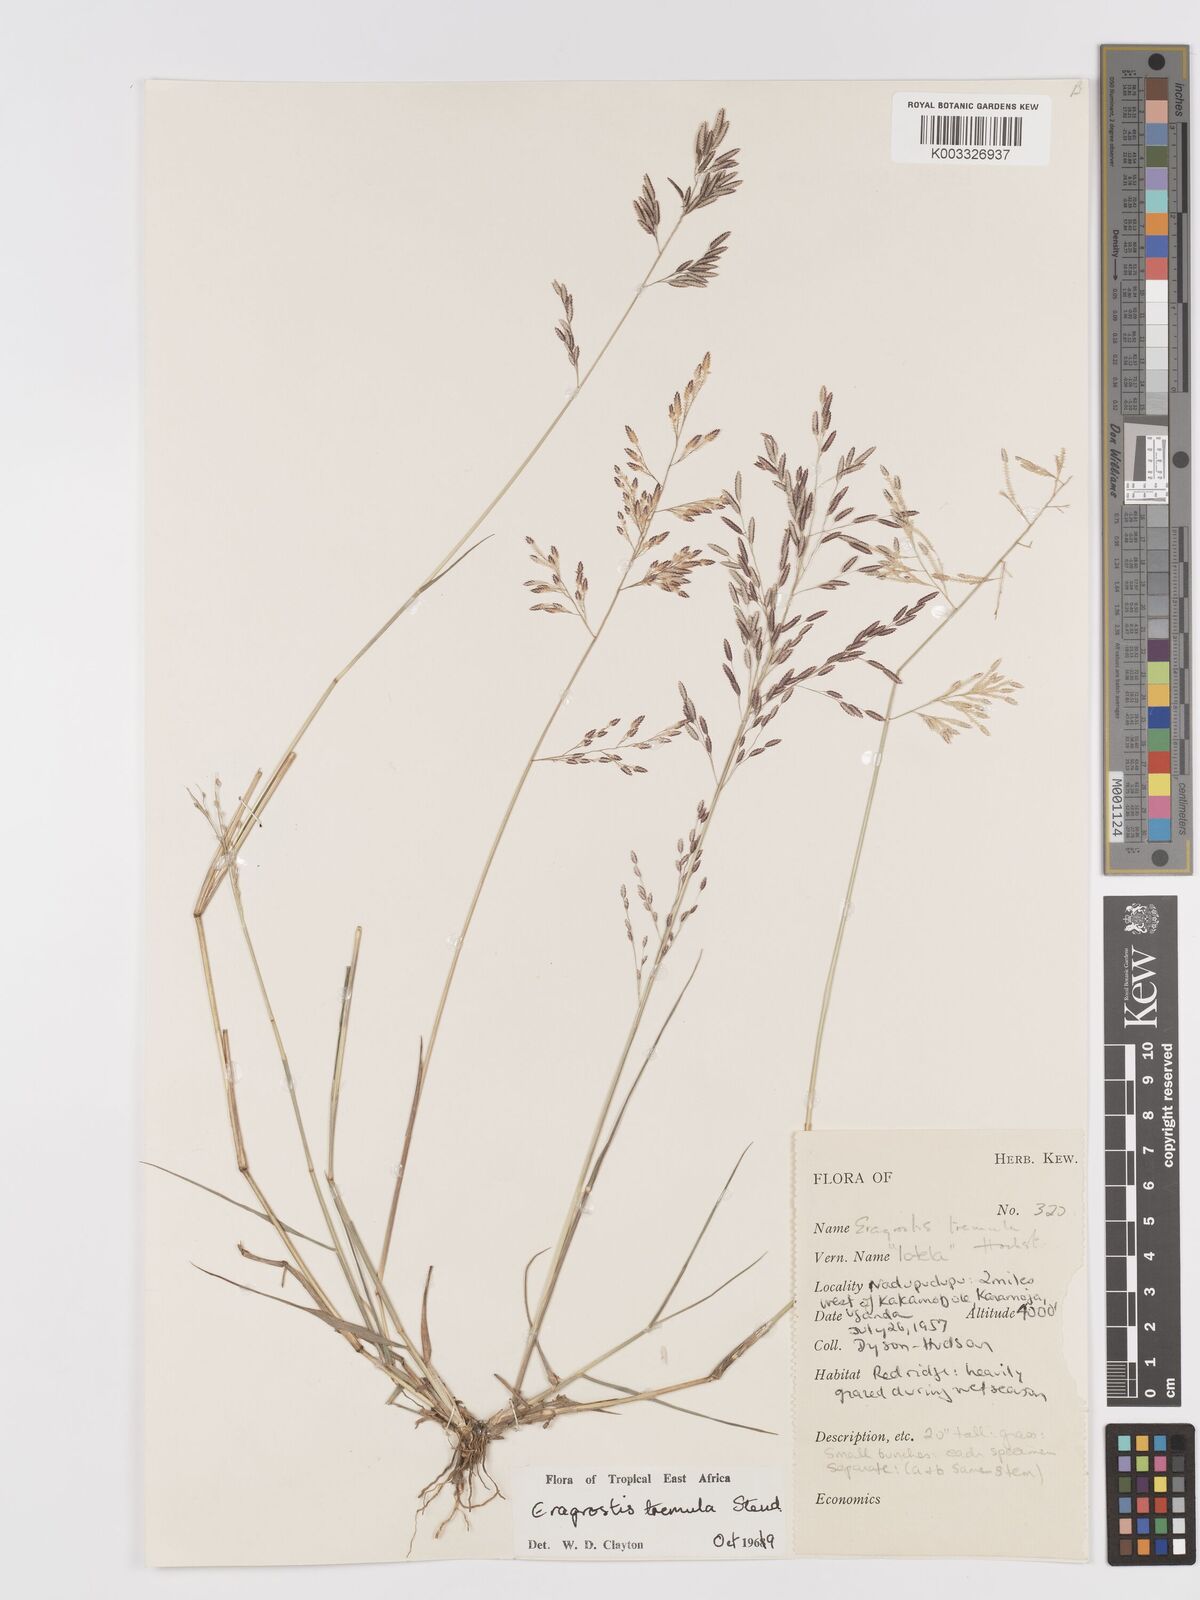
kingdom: Plantae
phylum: Tracheophyta
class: Liliopsida
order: Poales
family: Poaceae
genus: Eragrostis
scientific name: Eragrostis tremula
